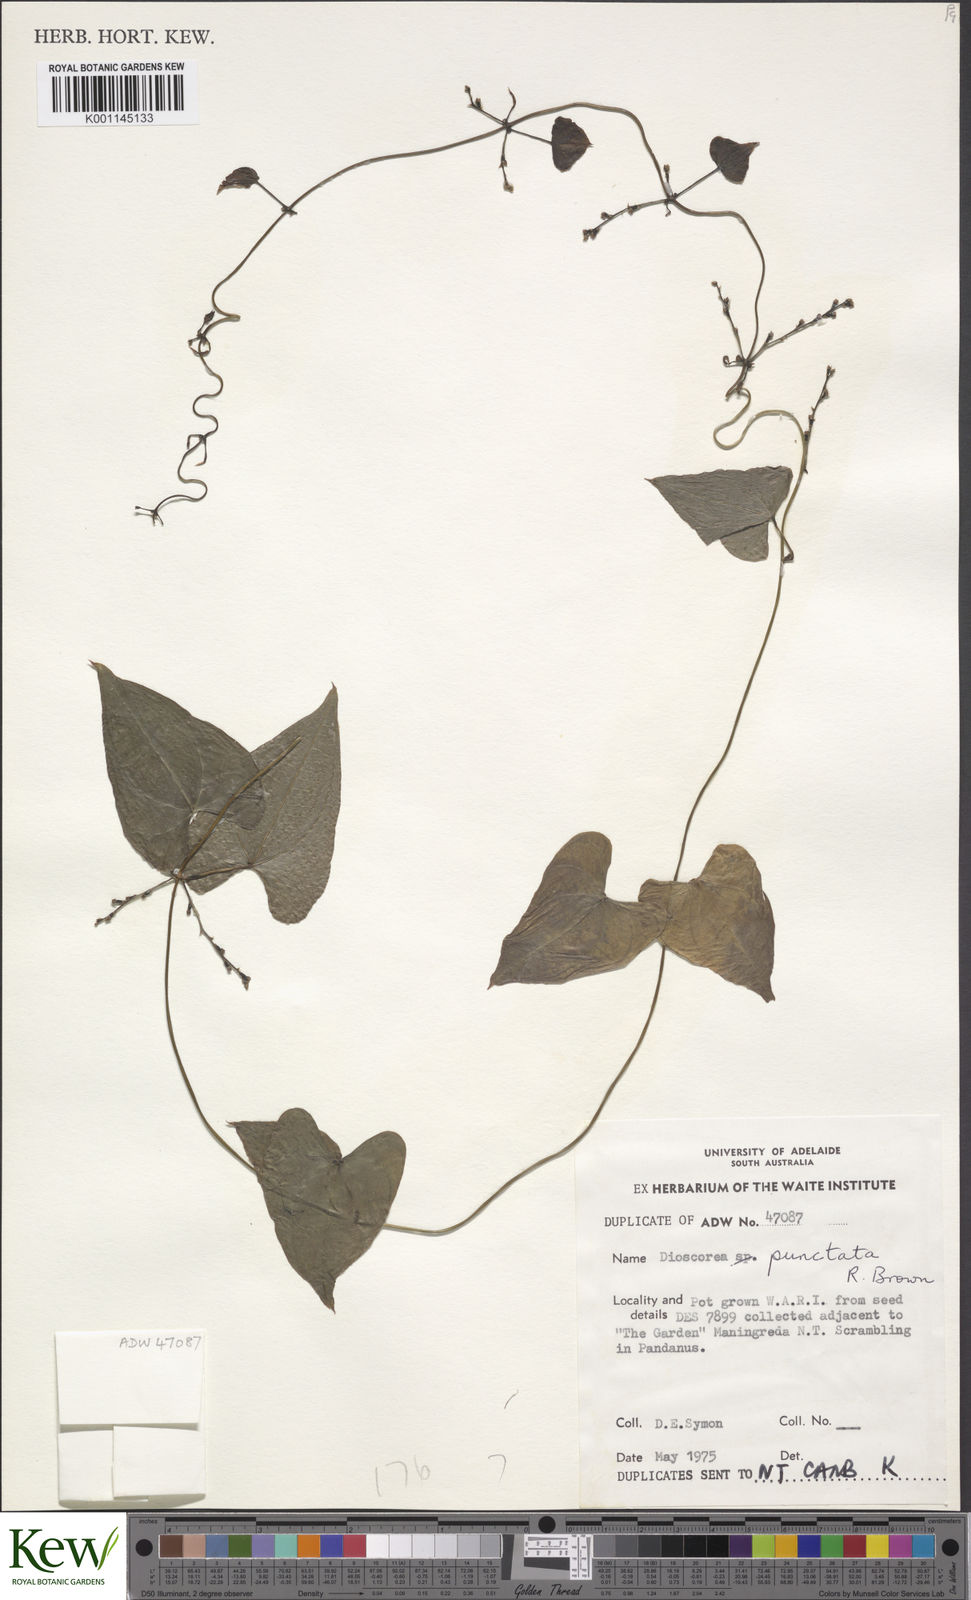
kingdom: Plantae
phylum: Tracheophyta
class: Liliopsida
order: Dioscoreales
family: Dioscoreaceae
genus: Dioscorea
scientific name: Dioscorea transversa
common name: Long yam
